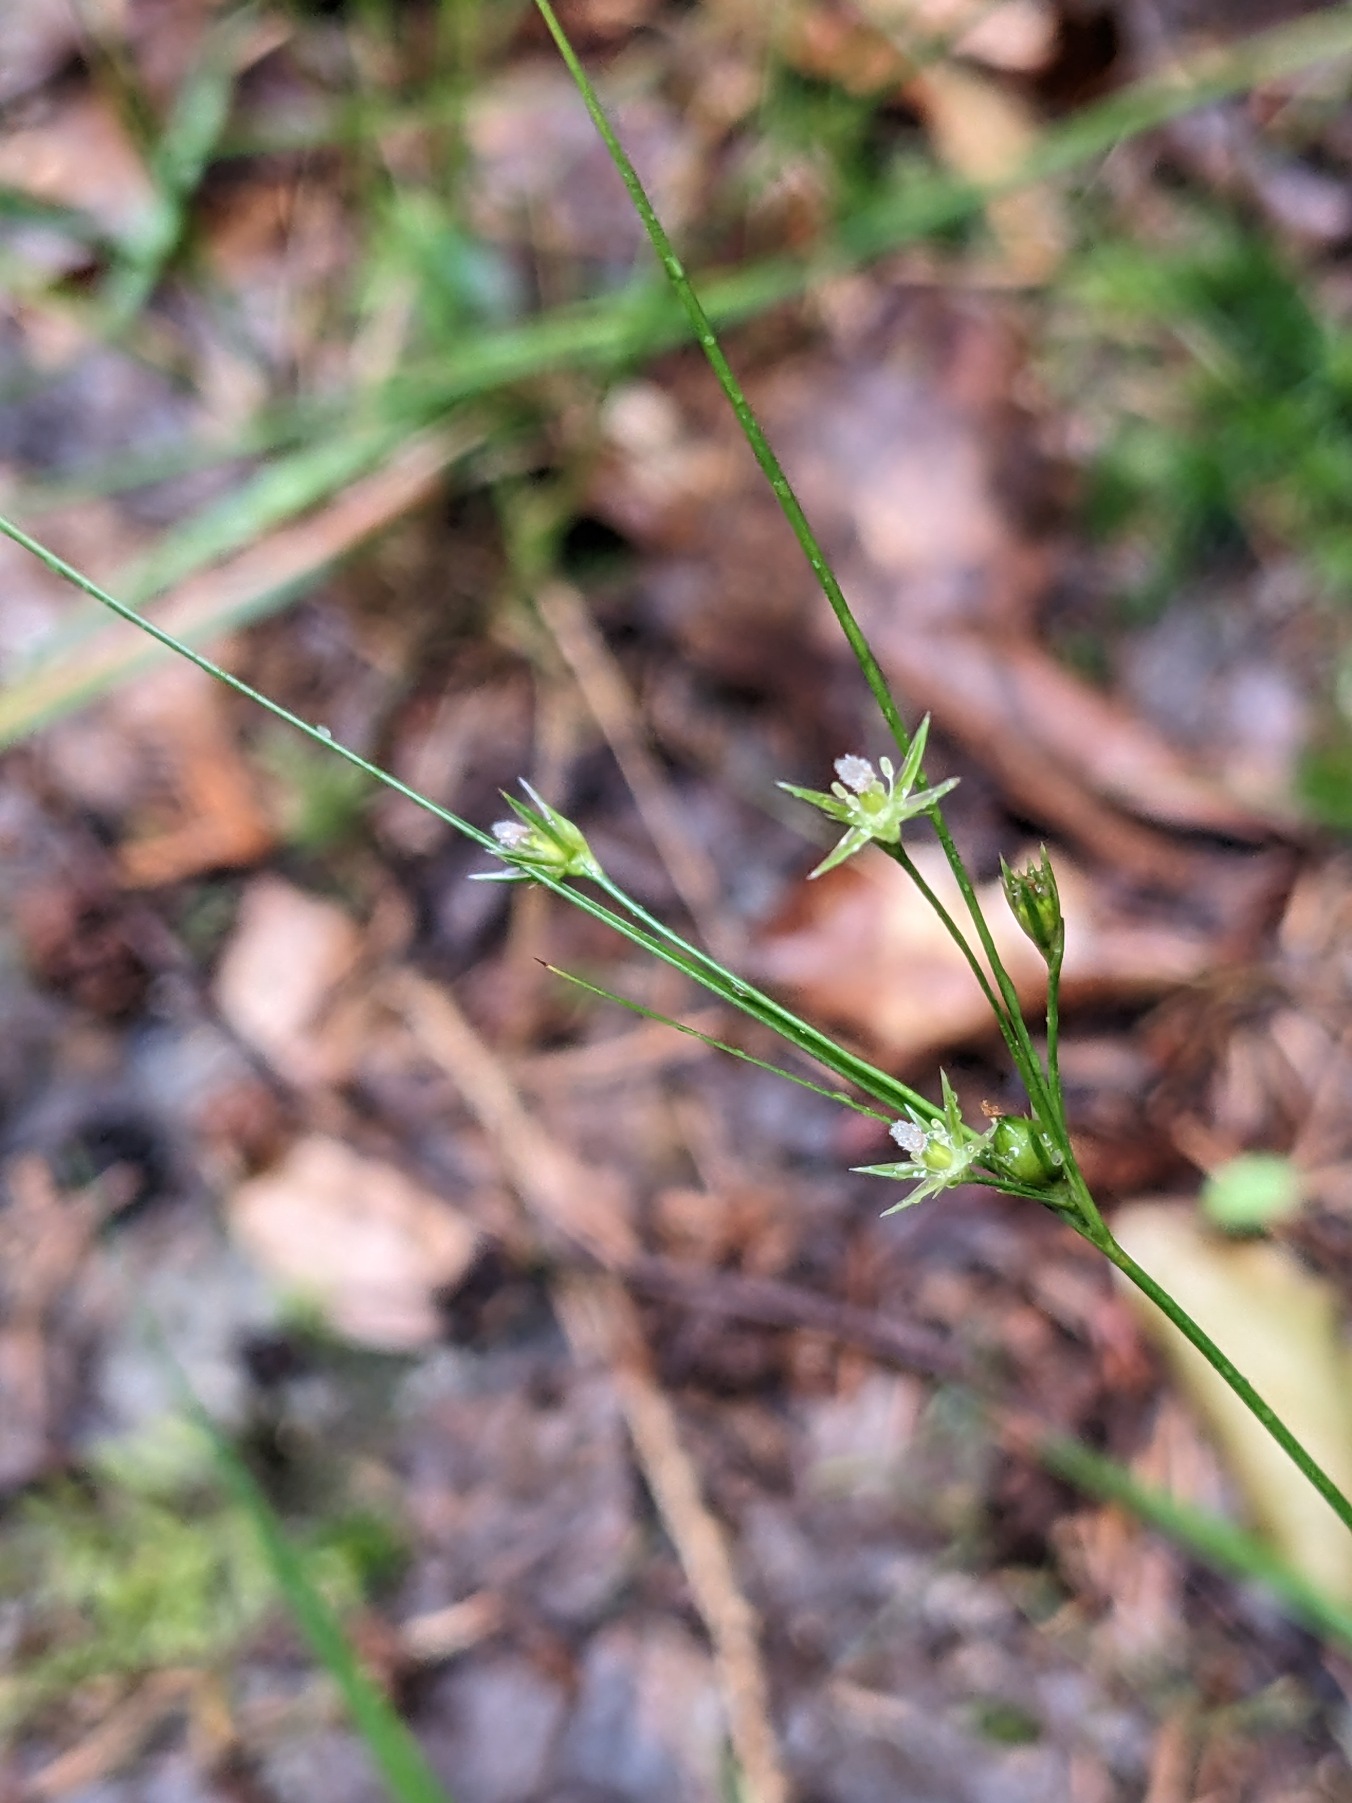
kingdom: Plantae
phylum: Tracheophyta
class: Liliopsida
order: Poales
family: Juncaceae
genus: Juncus
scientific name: Juncus tenuis
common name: Tue-siv
